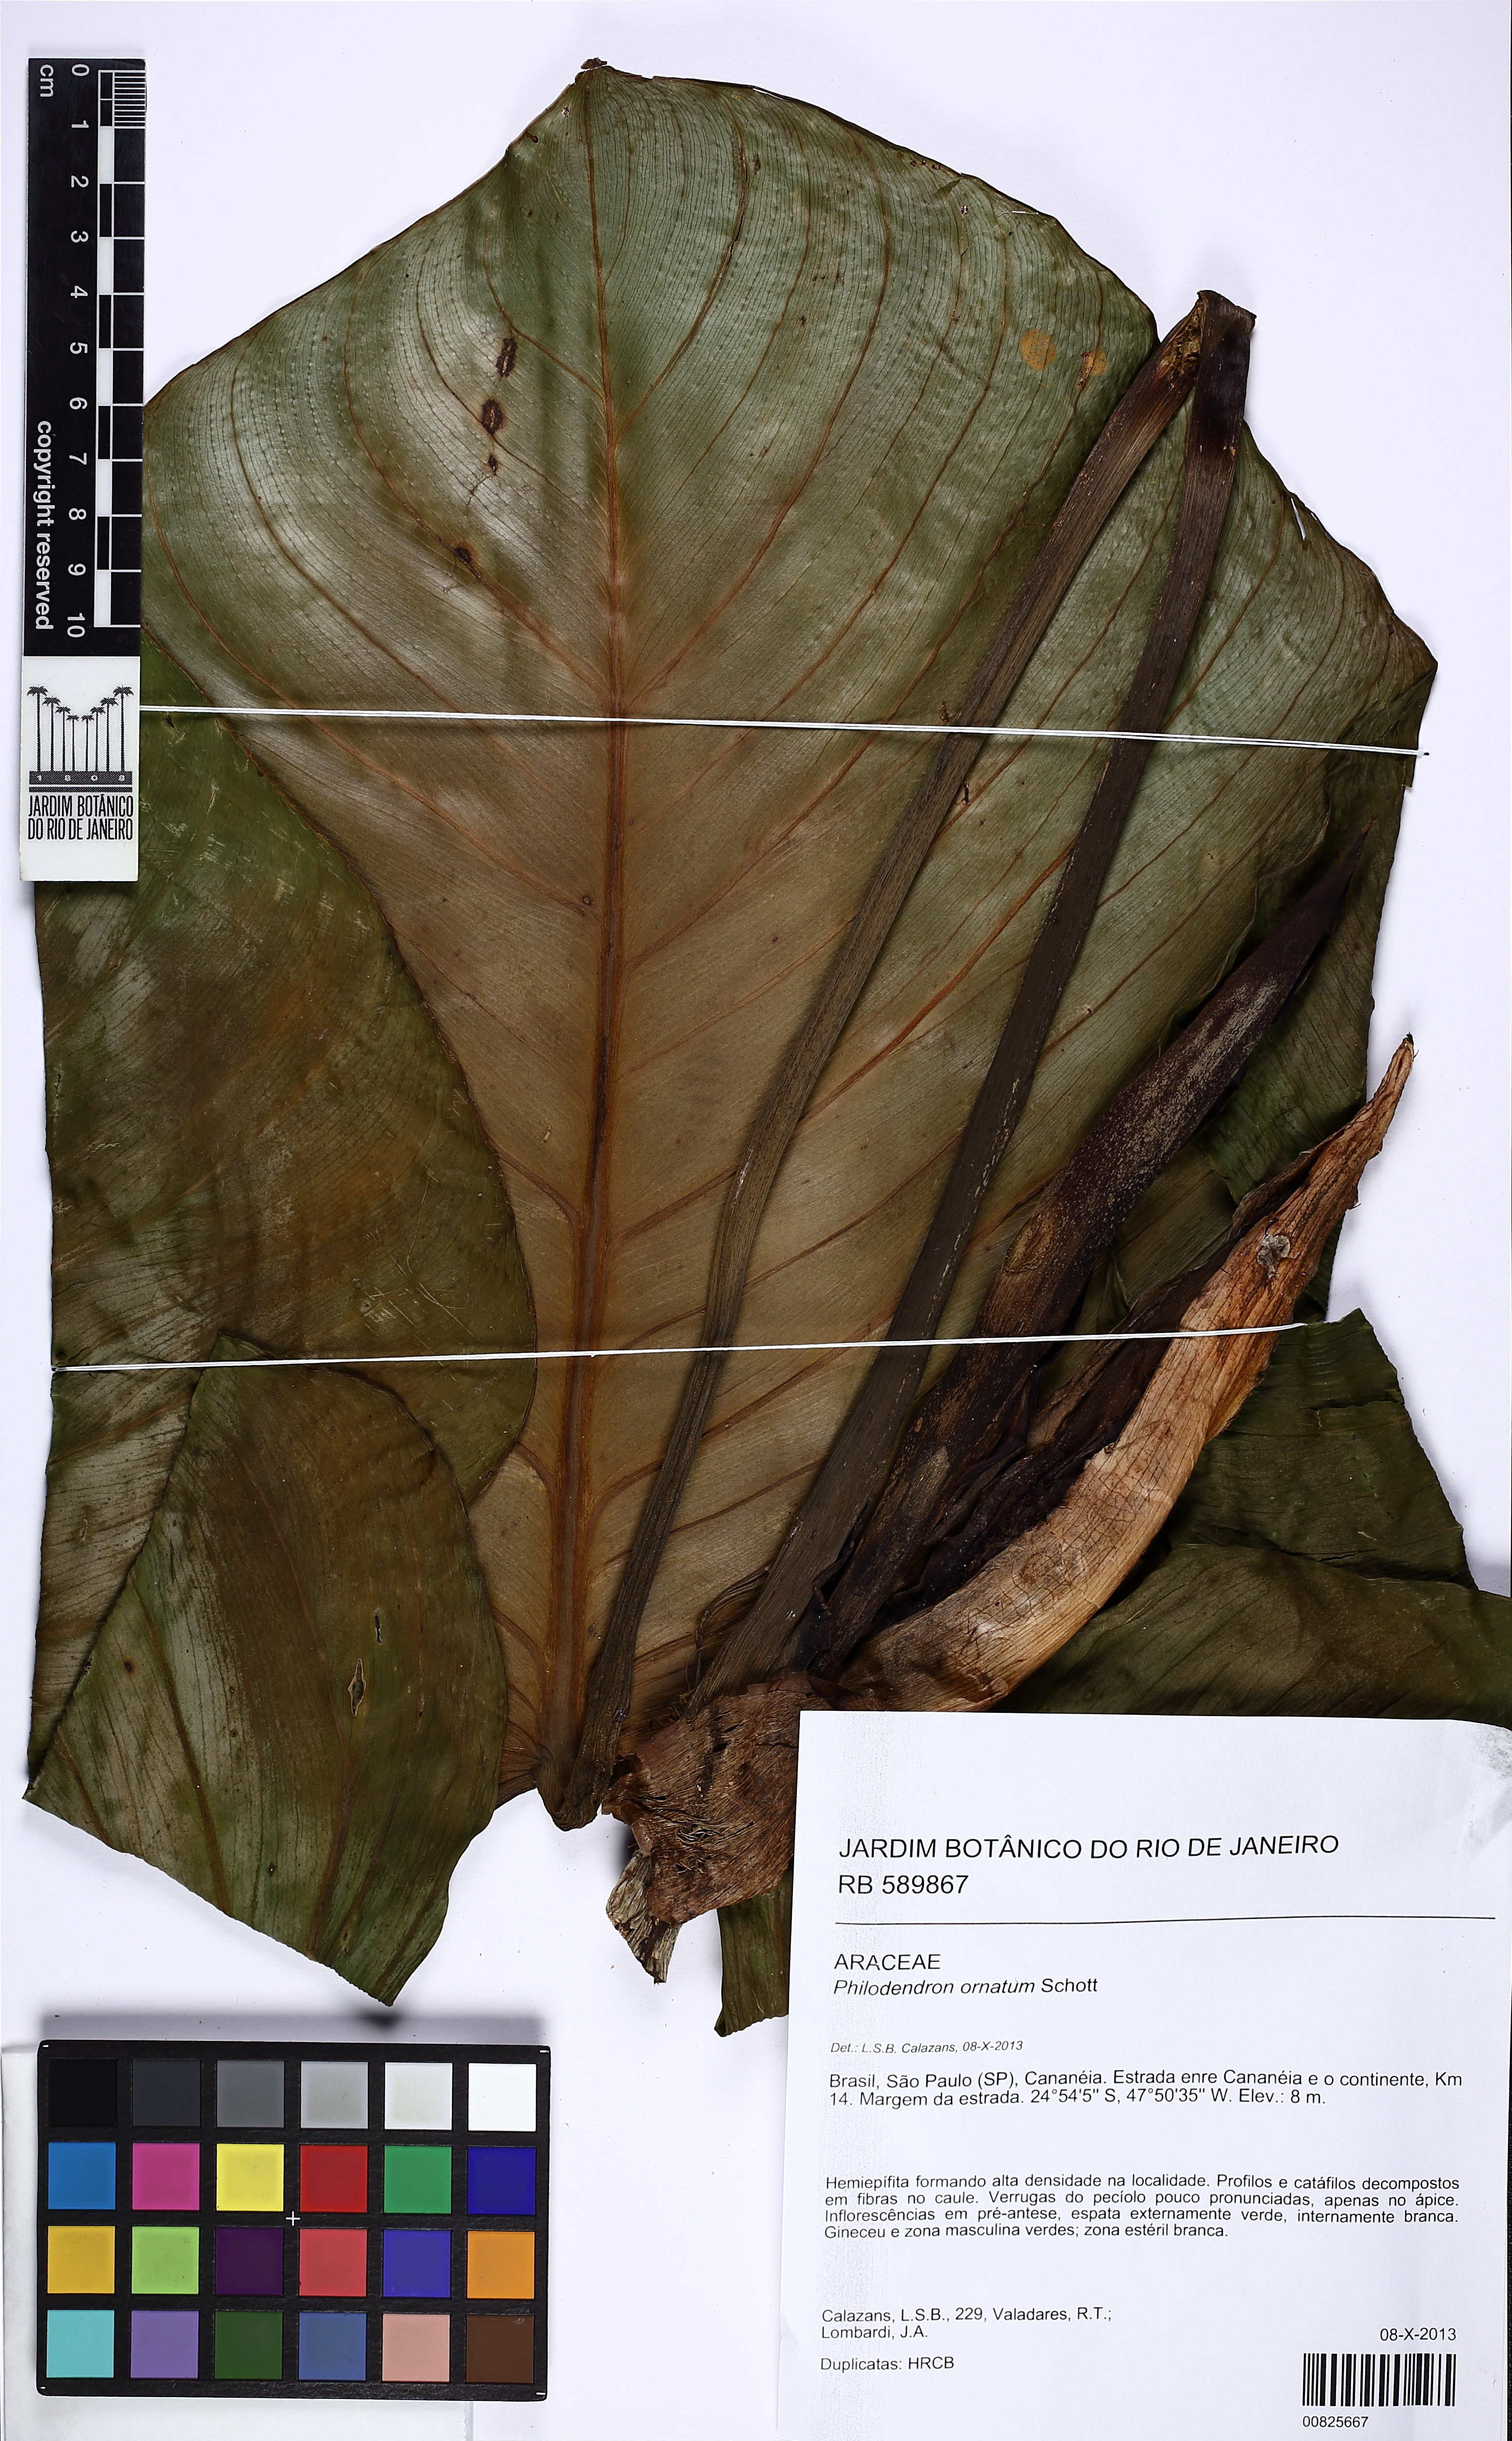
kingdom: Plantae
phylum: Tracheophyta
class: Liliopsida
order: Alismatales
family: Araceae
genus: Philodendron
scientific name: Philodendron ornatum
